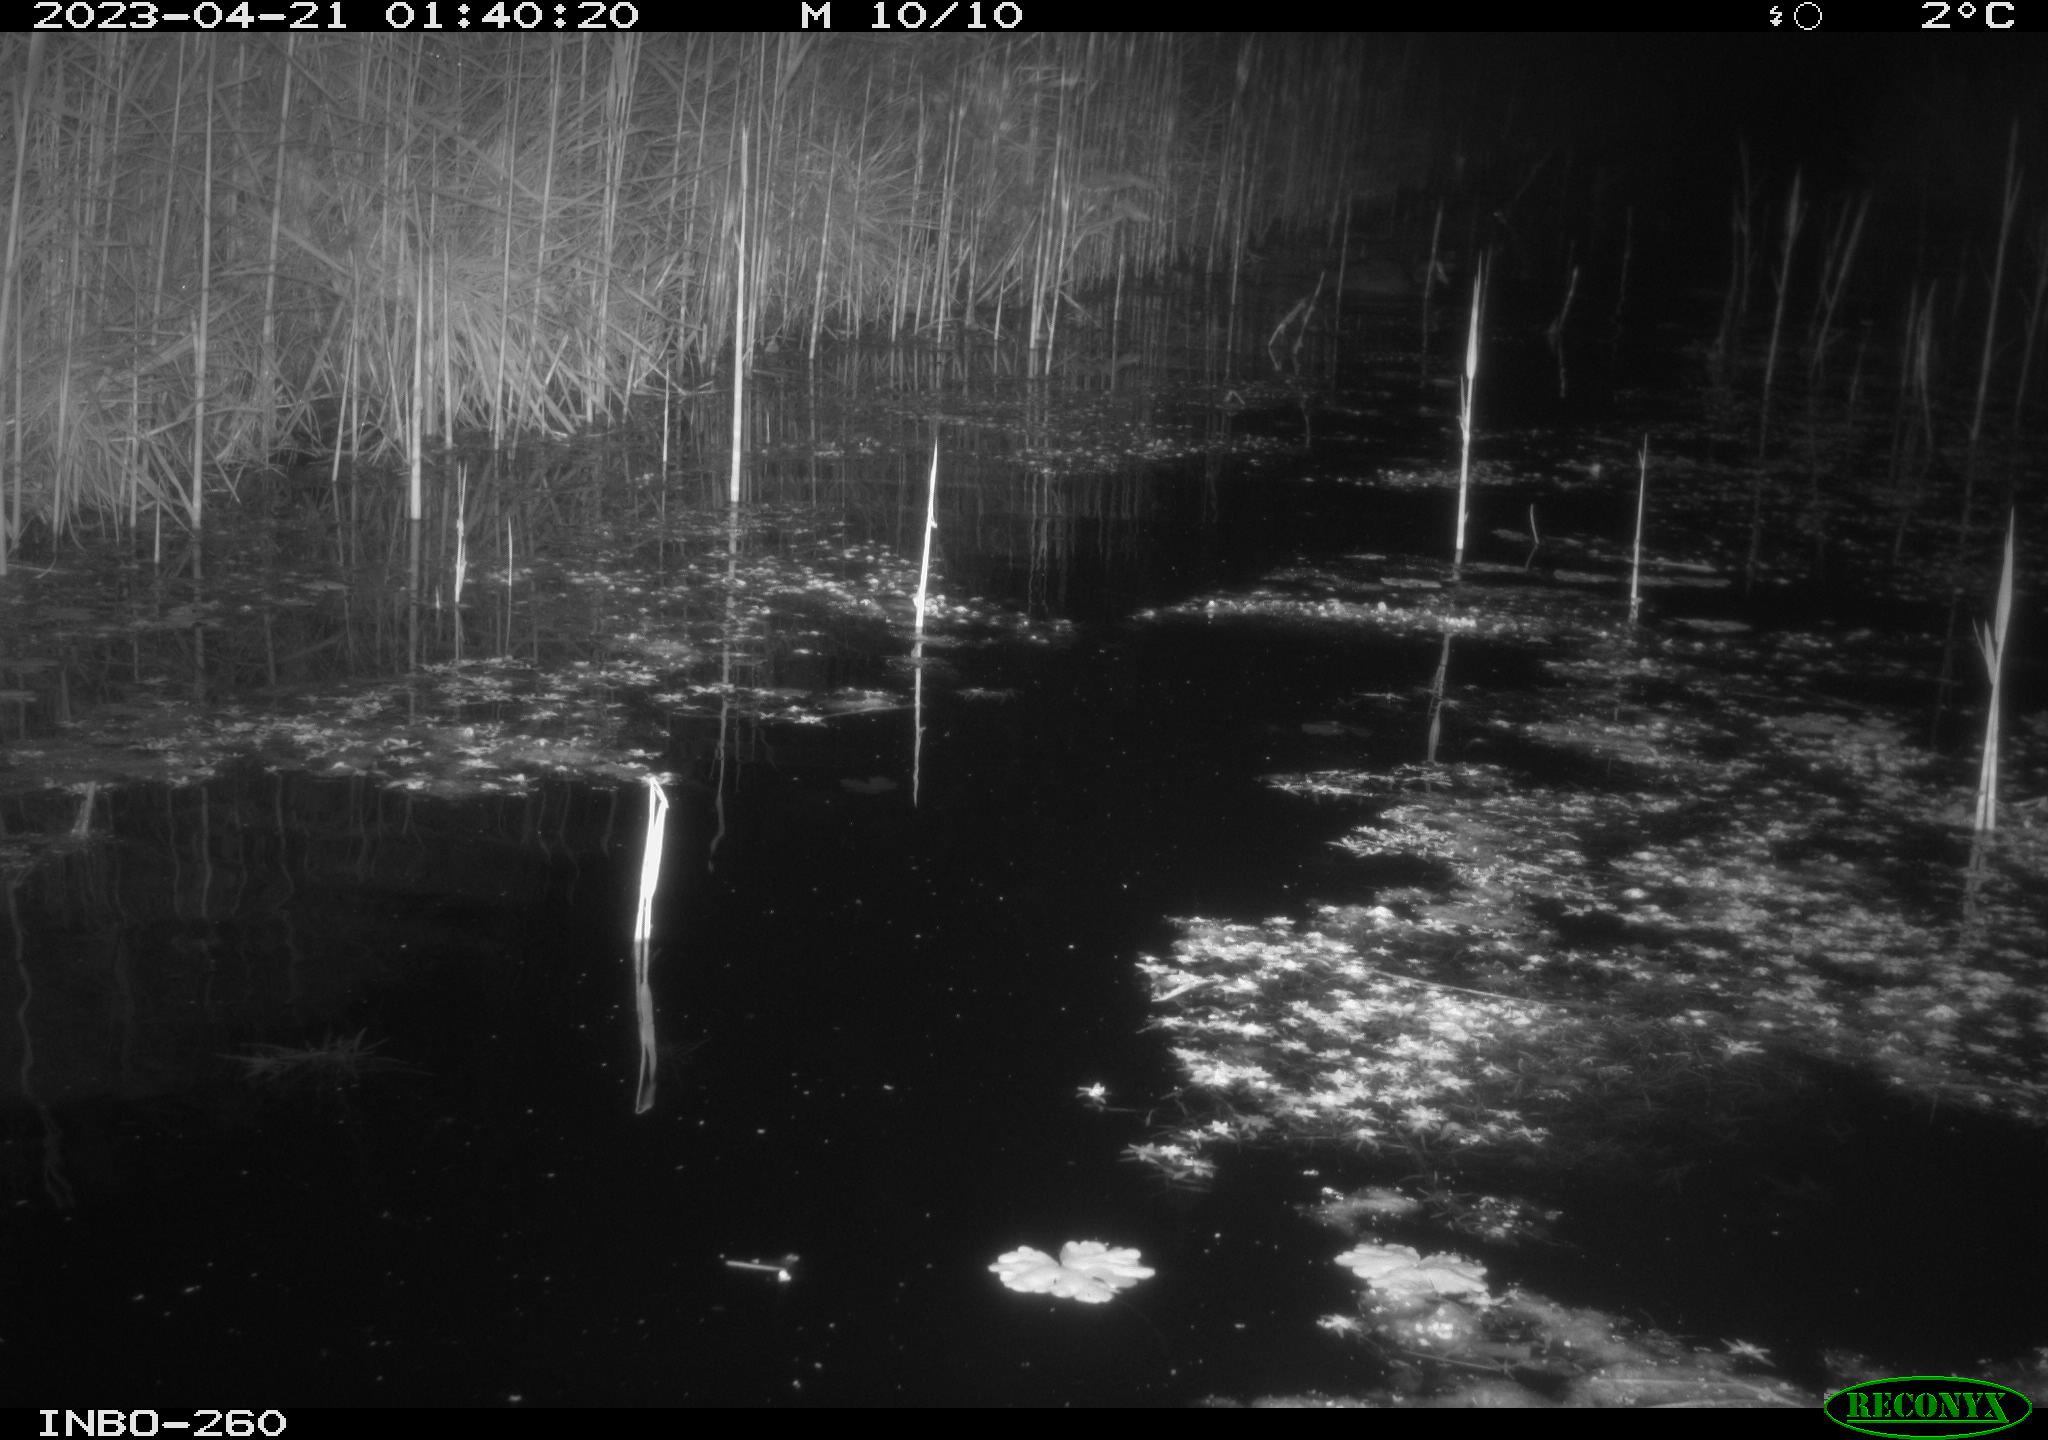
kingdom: Animalia
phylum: Chordata
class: Mammalia
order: Rodentia
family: Cricetidae
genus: Ondatra
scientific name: Ondatra zibethicus
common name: Muskrat
